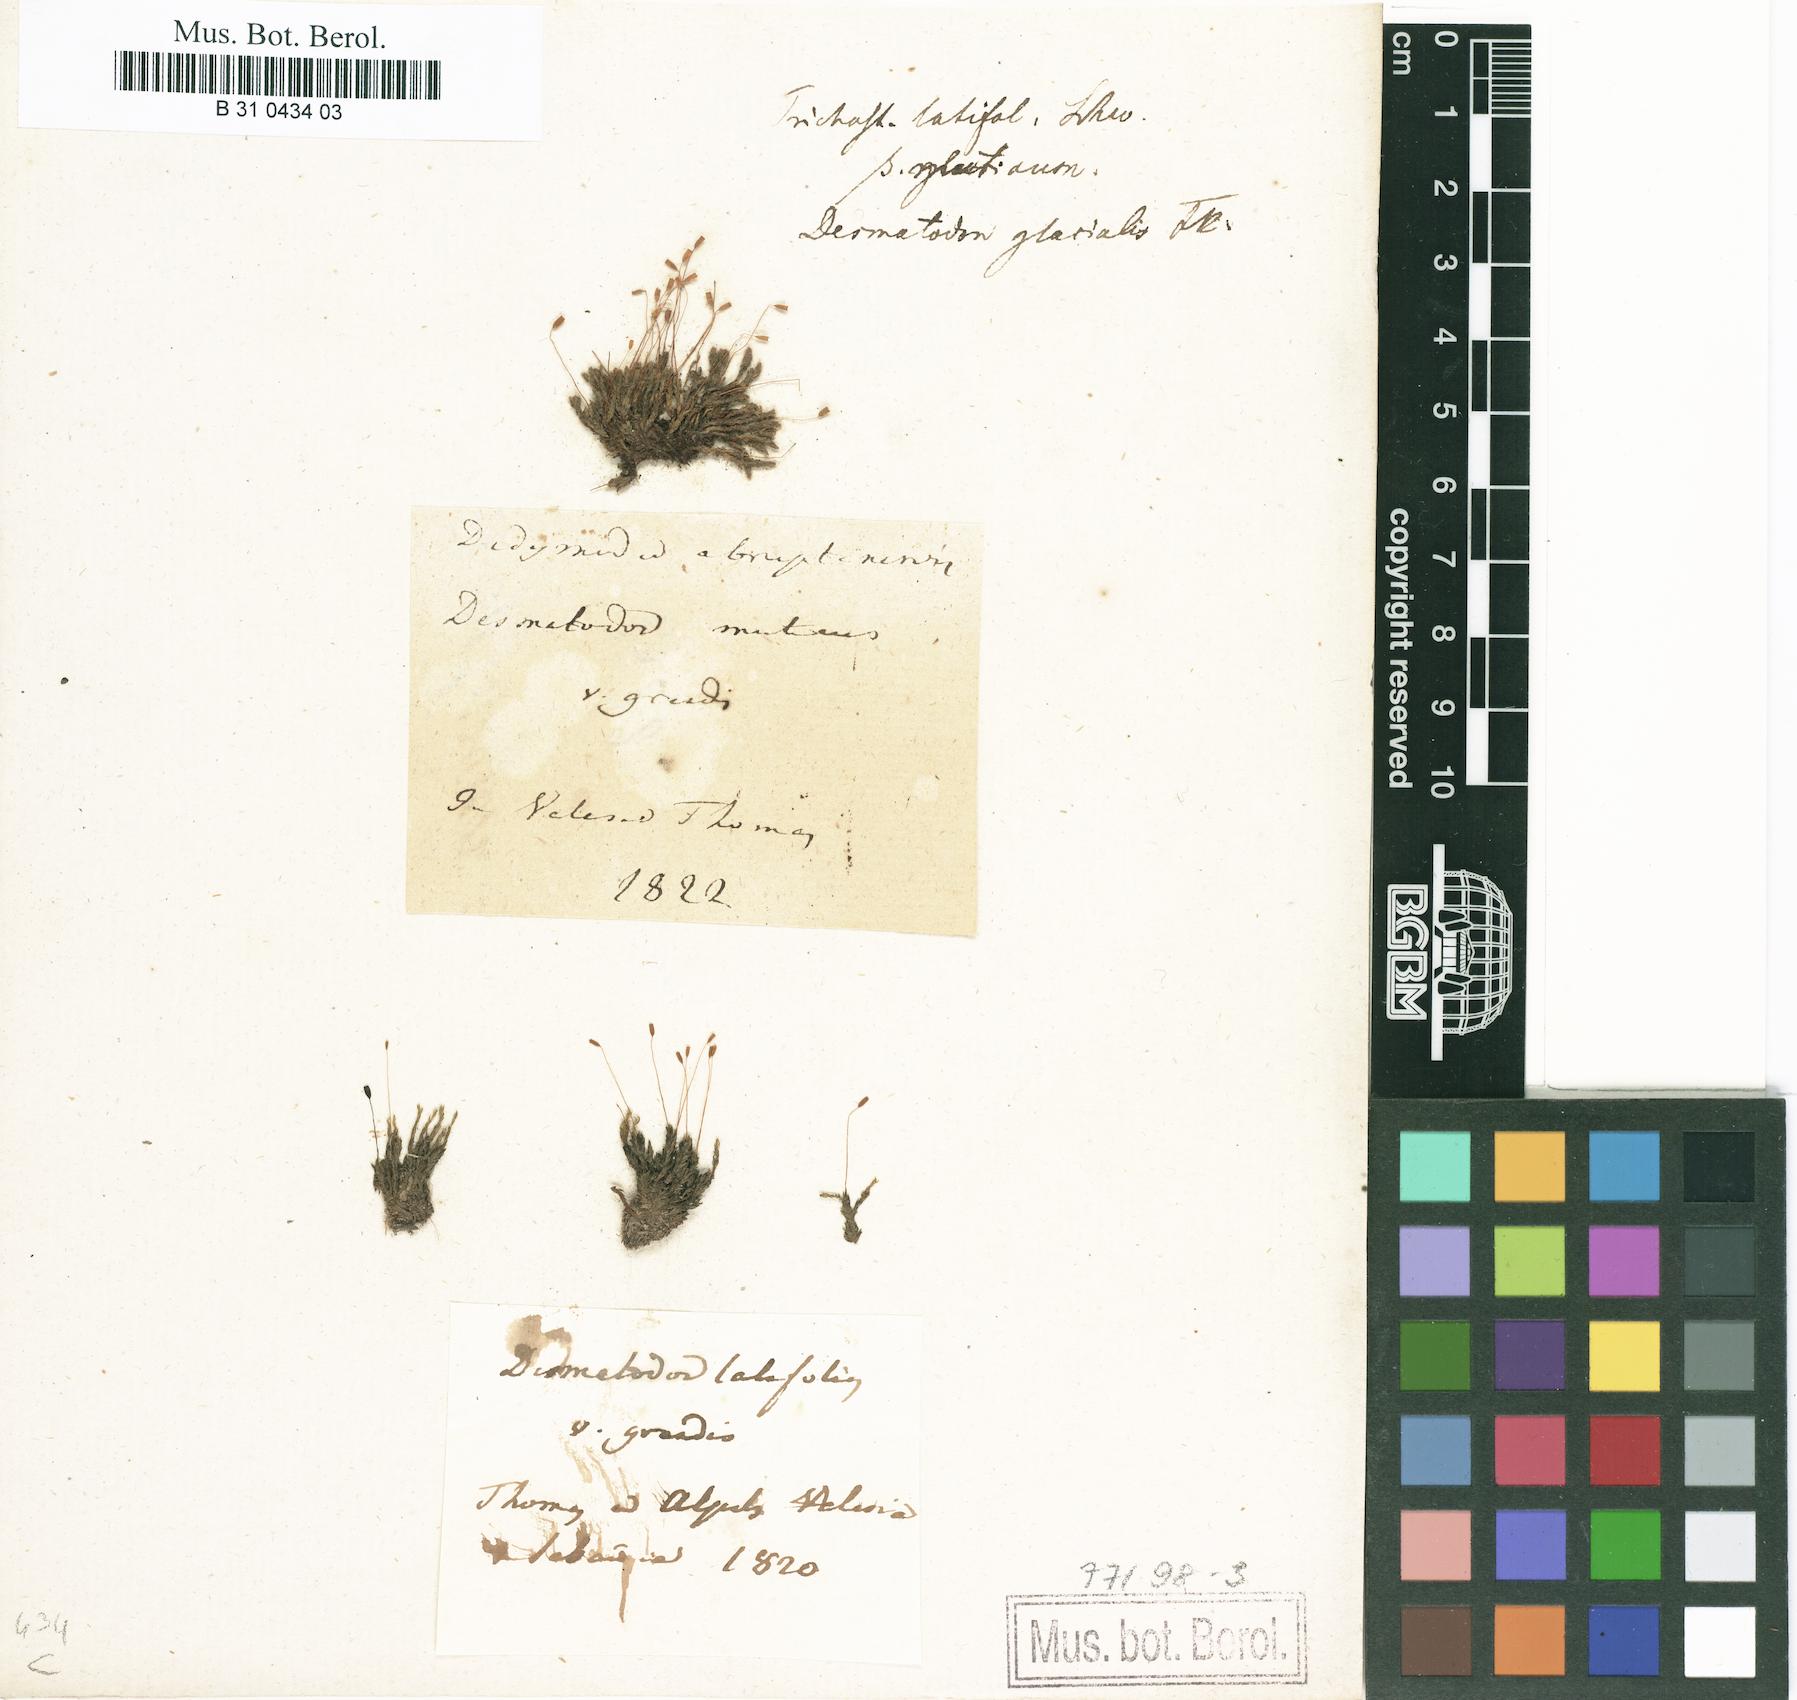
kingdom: Plantae
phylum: Bryophyta
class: Bryopsida
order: Pottiales
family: Pottiaceae
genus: Tortula
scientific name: Tortula hoppeana
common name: Hoppe's screw moss
